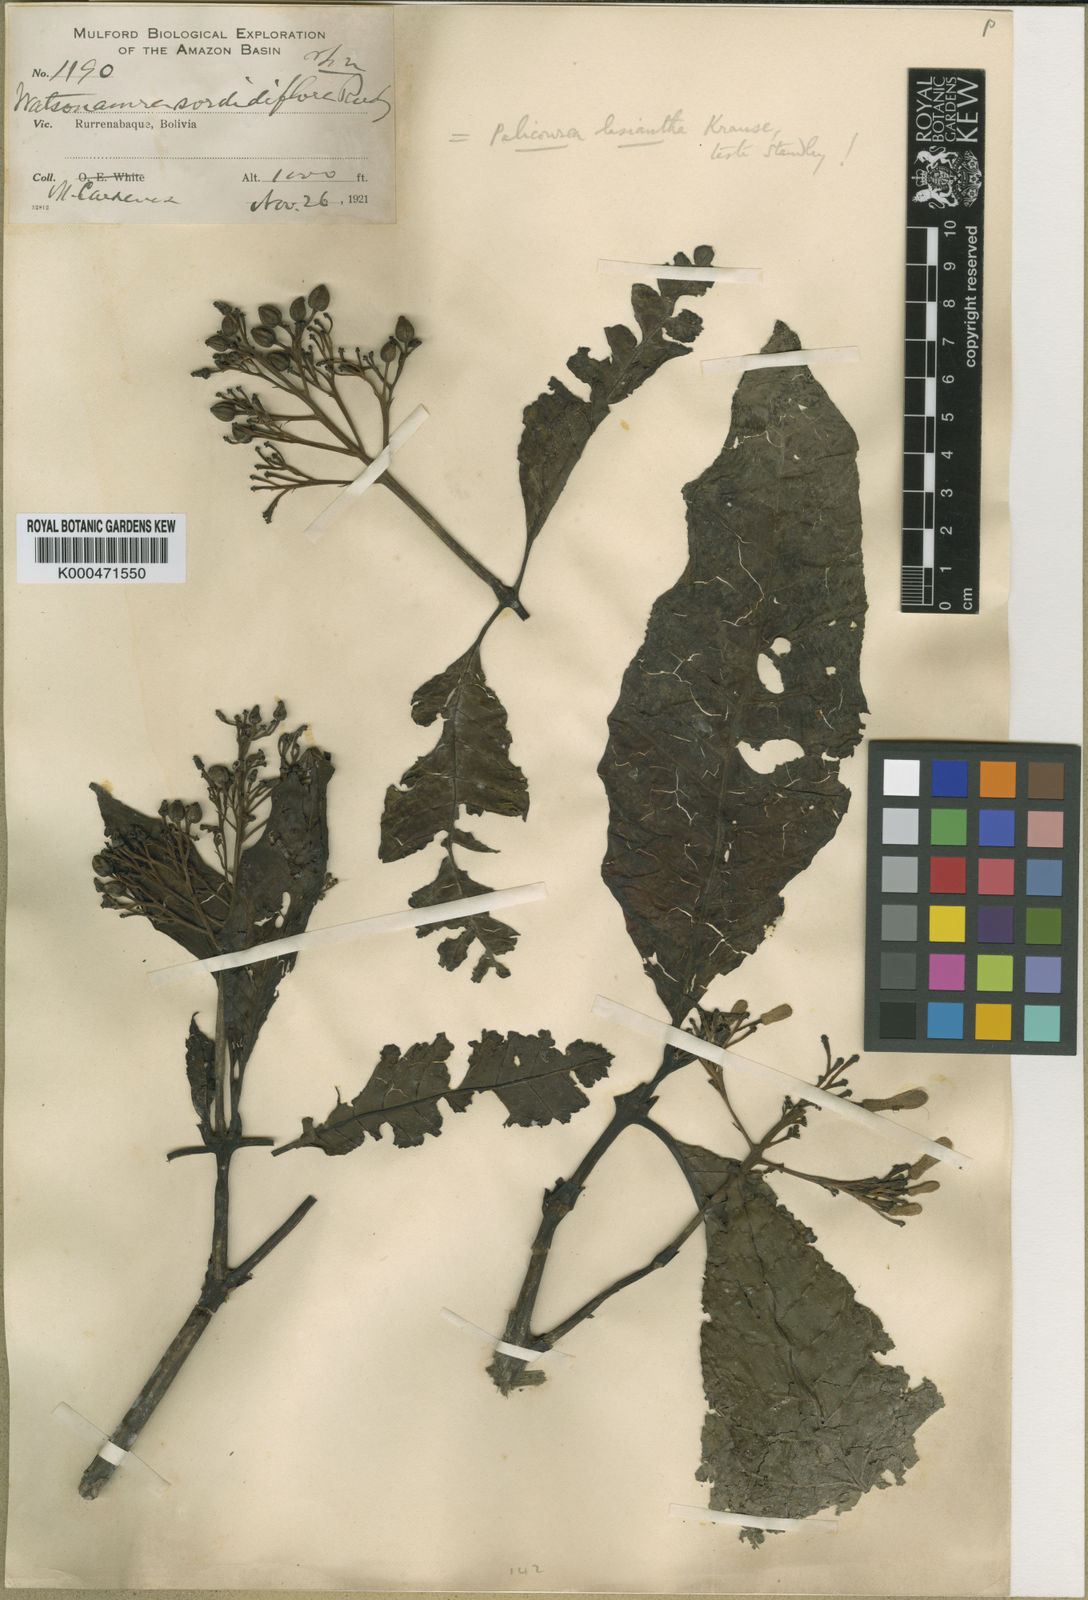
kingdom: Plantae
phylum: Tracheophyta
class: Magnoliopsida
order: Gentianales
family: Rubiaceae
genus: Palicourea
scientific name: Palicourea lasiantha
